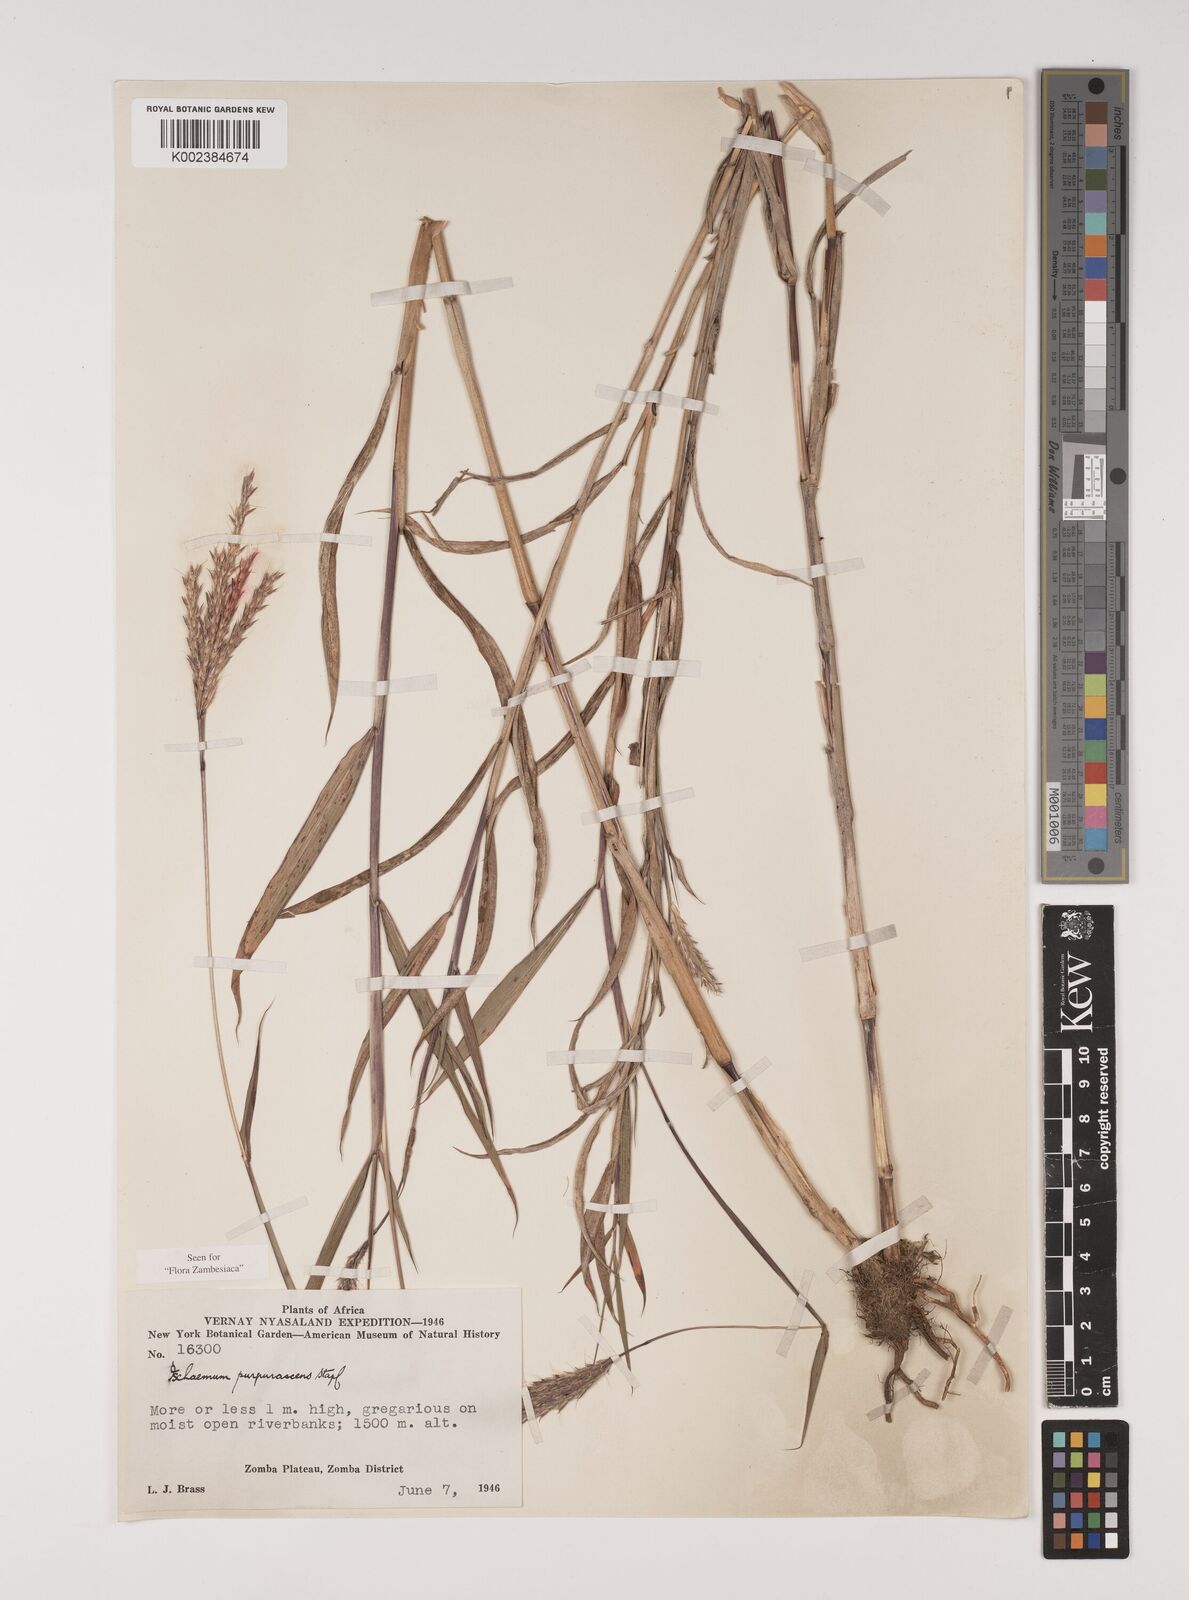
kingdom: Plantae
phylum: Tracheophyta
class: Liliopsida
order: Poales
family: Poaceae
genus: Ischaemum
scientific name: Ischaemum
